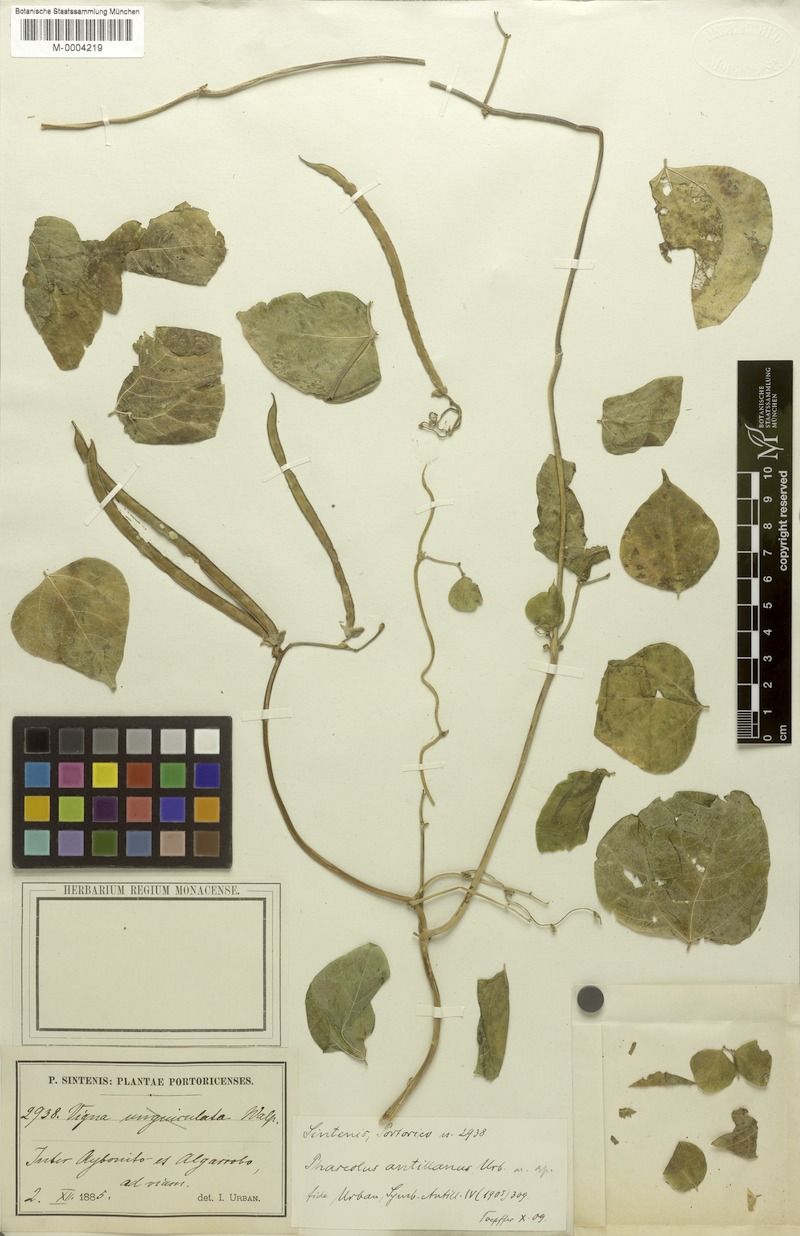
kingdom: Plantae
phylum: Tracheophyta
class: Magnoliopsida
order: Fabales
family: Fabaceae
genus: Sigmoidotropis
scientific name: Sigmoidotropis antillana
